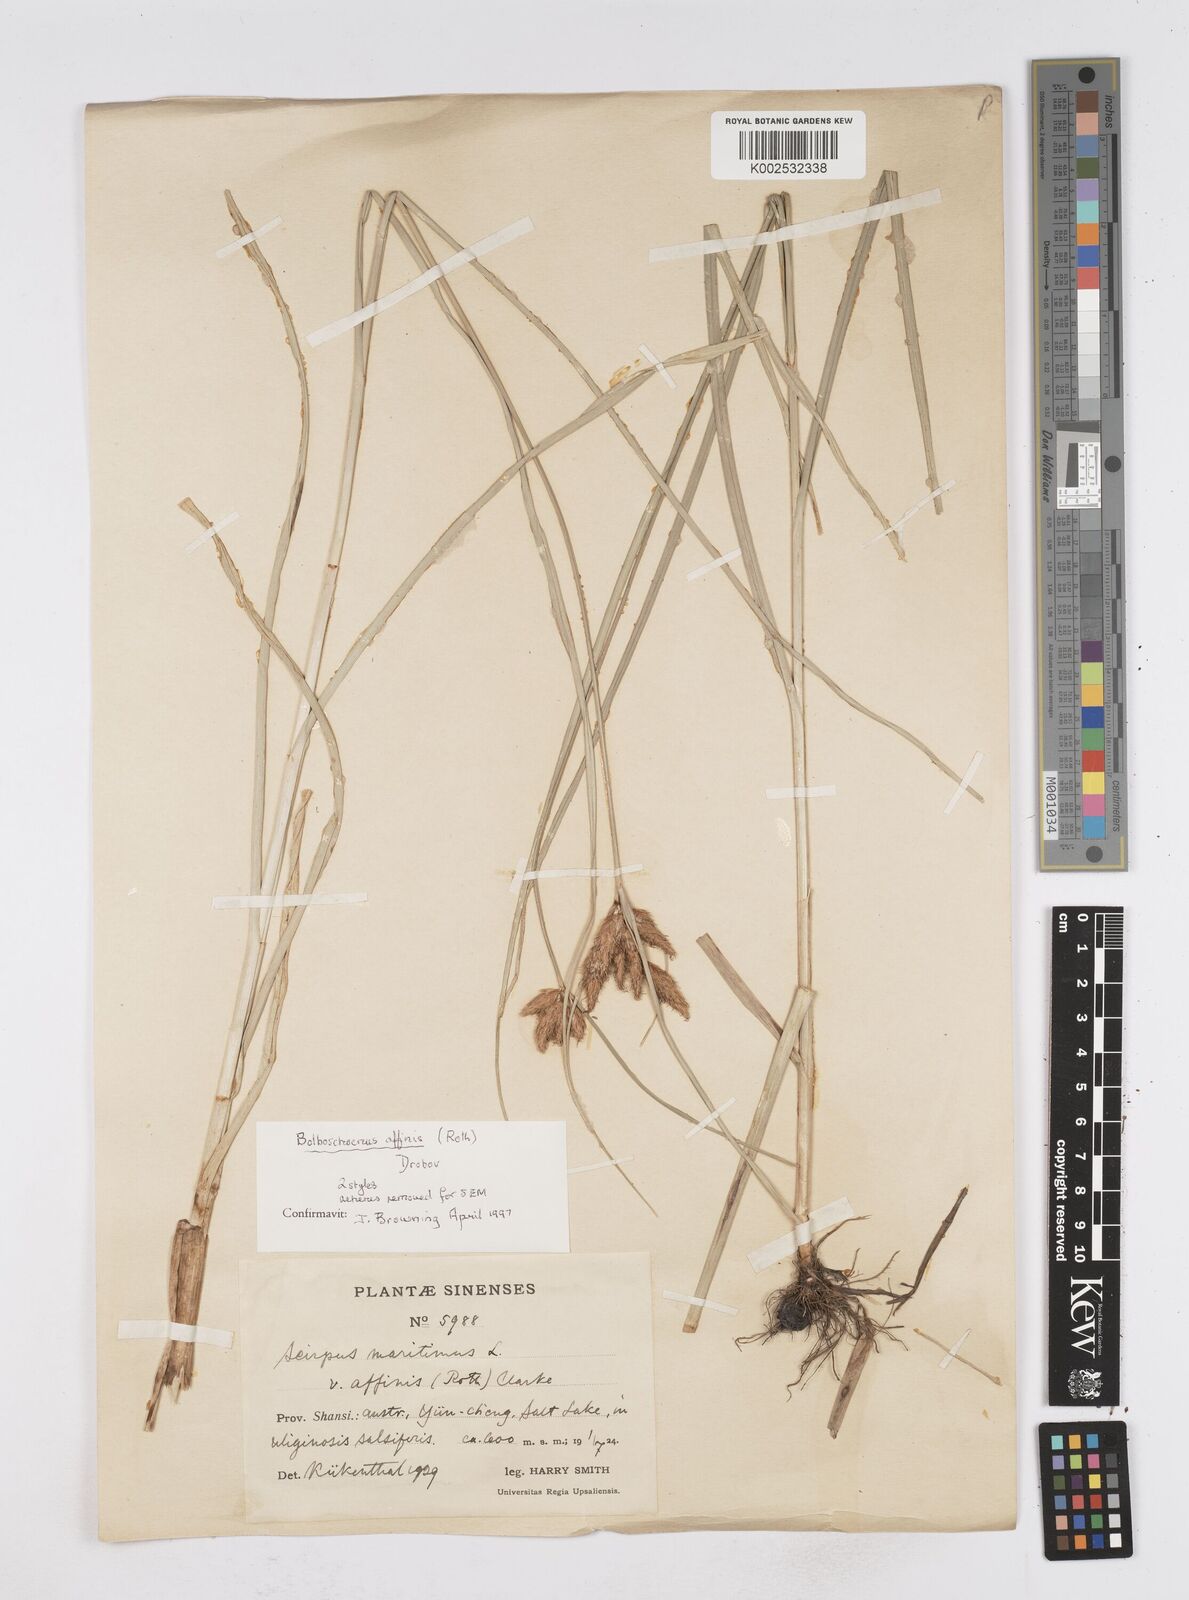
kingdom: Plantae
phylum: Tracheophyta
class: Liliopsida
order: Poales
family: Cyperaceae
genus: Bolboschoenus
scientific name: Bolboschoenus maritimus
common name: Sea club-rush
